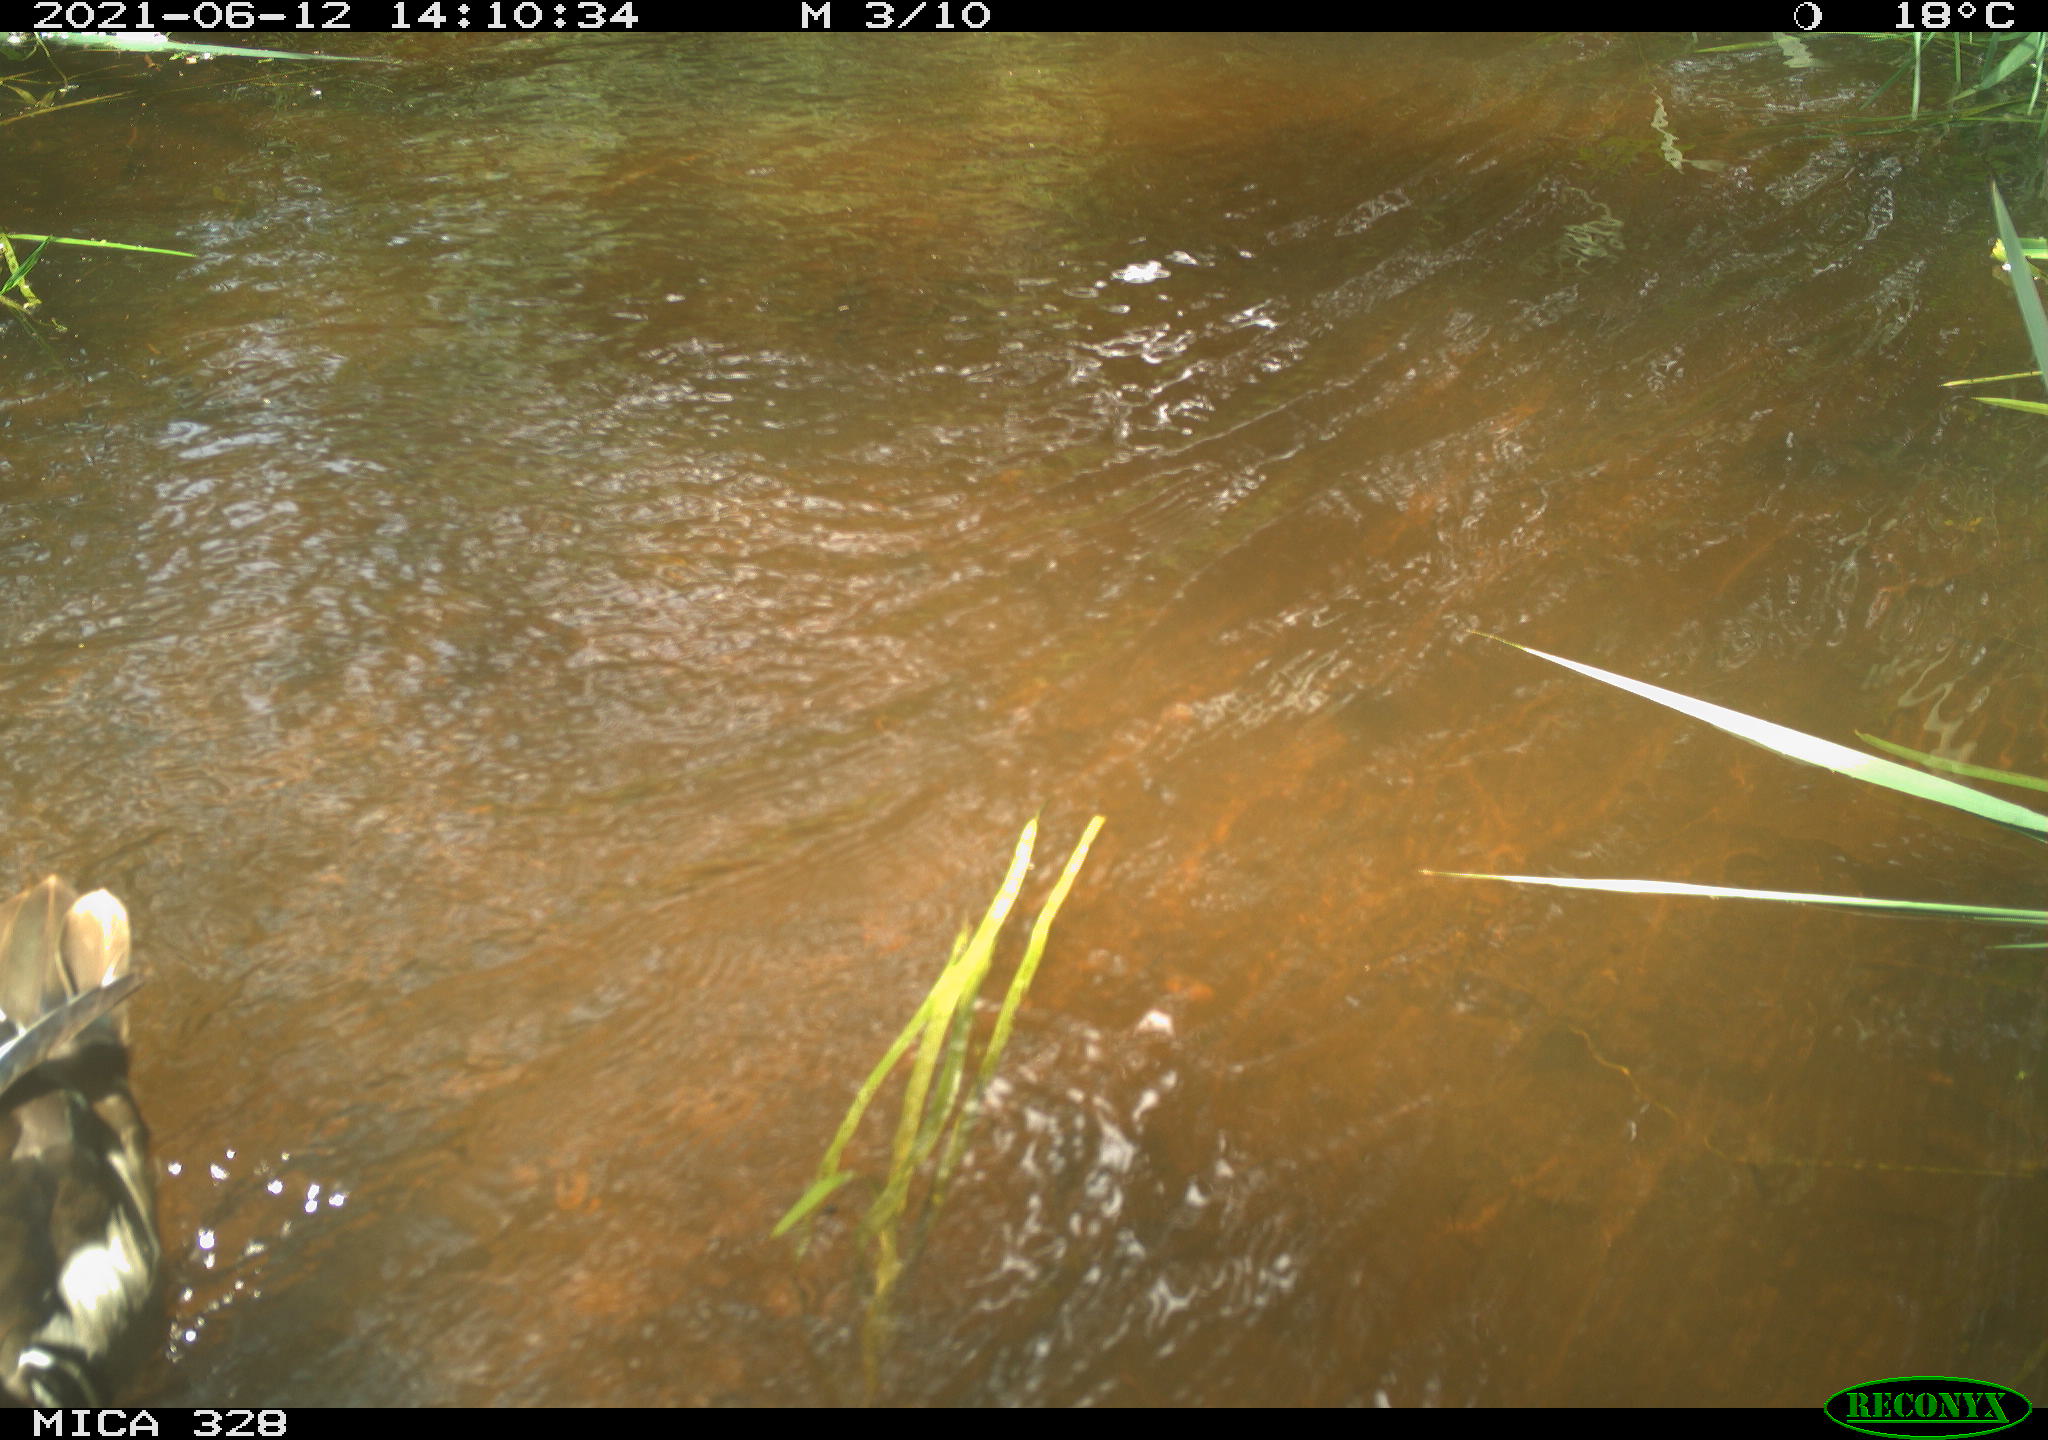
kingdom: Animalia
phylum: Chordata
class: Aves
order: Anseriformes
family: Anatidae
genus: Aix
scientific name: Aix galericulata
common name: Mandarin duck
